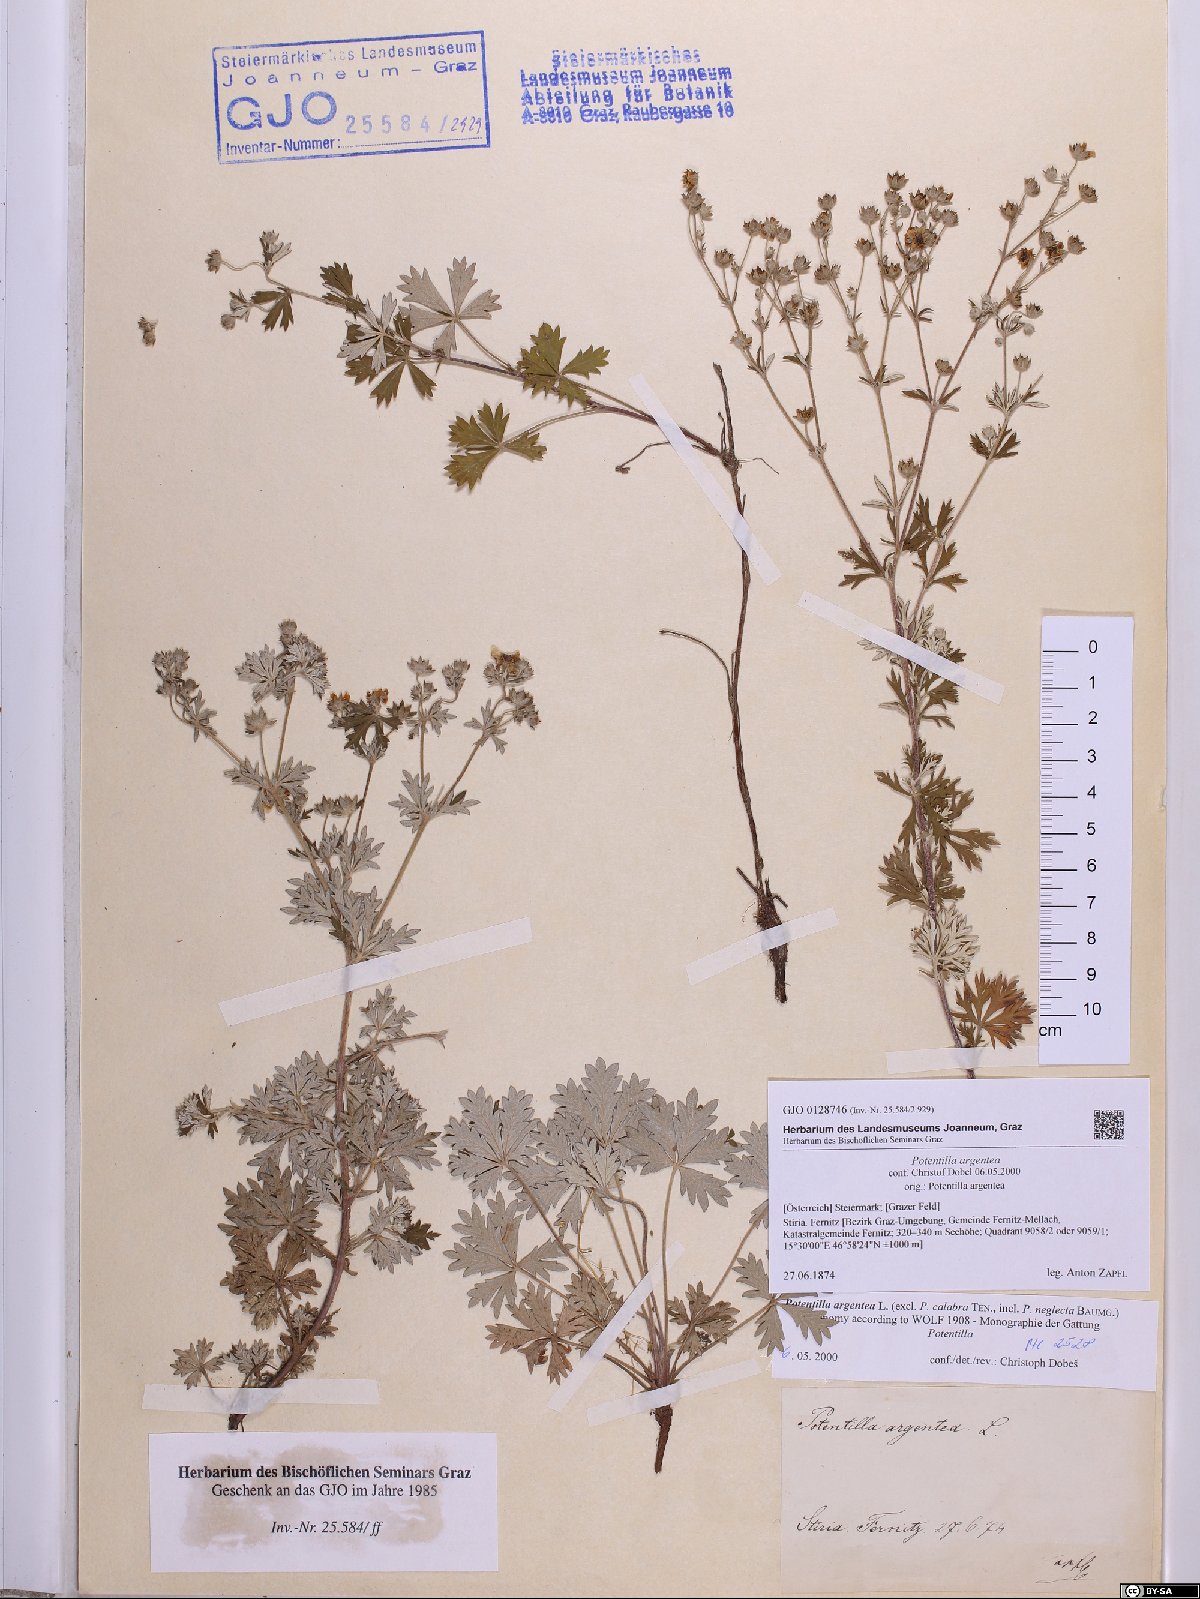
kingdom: Plantae
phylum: Tracheophyta
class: Magnoliopsida
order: Rosales
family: Rosaceae
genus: Potentilla
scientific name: Potentilla argentea
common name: Hoary cinquefoil
